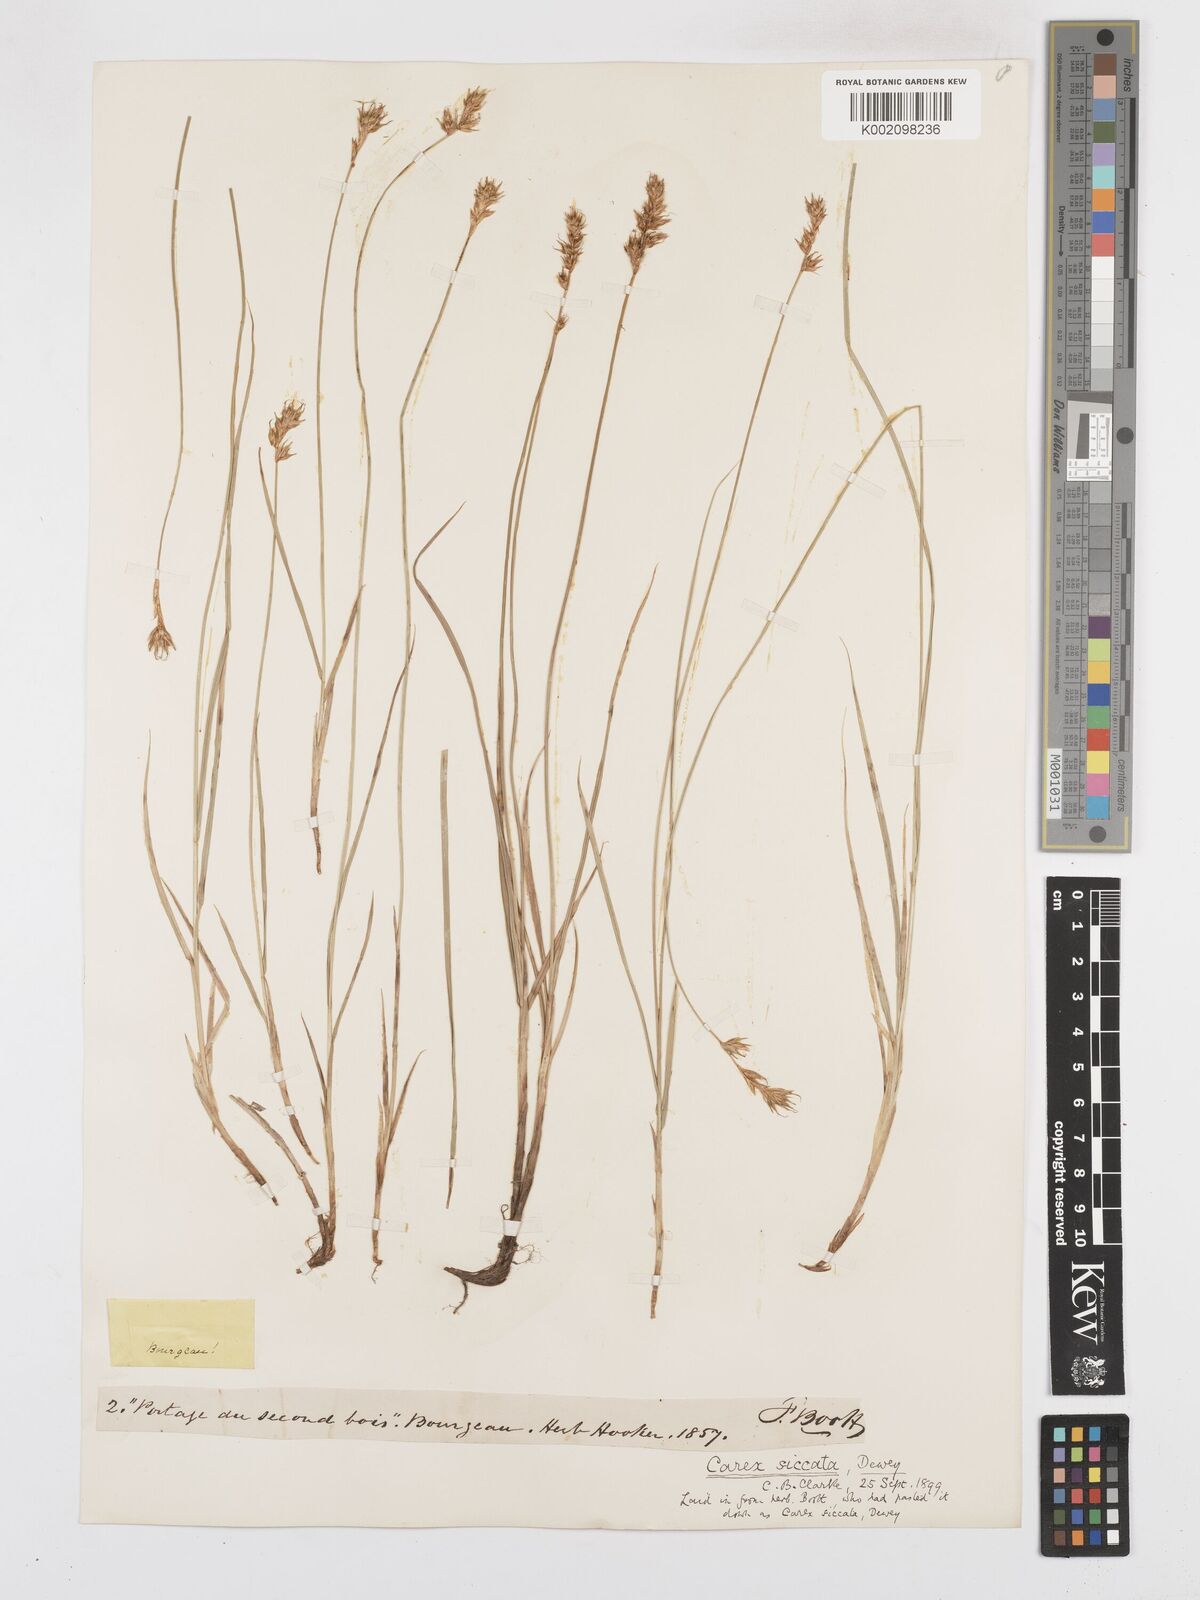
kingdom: Plantae
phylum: Tracheophyta
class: Liliopsida
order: Poales
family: Cyperaceae
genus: Carex
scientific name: Carex foenea
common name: Bronze sedge
